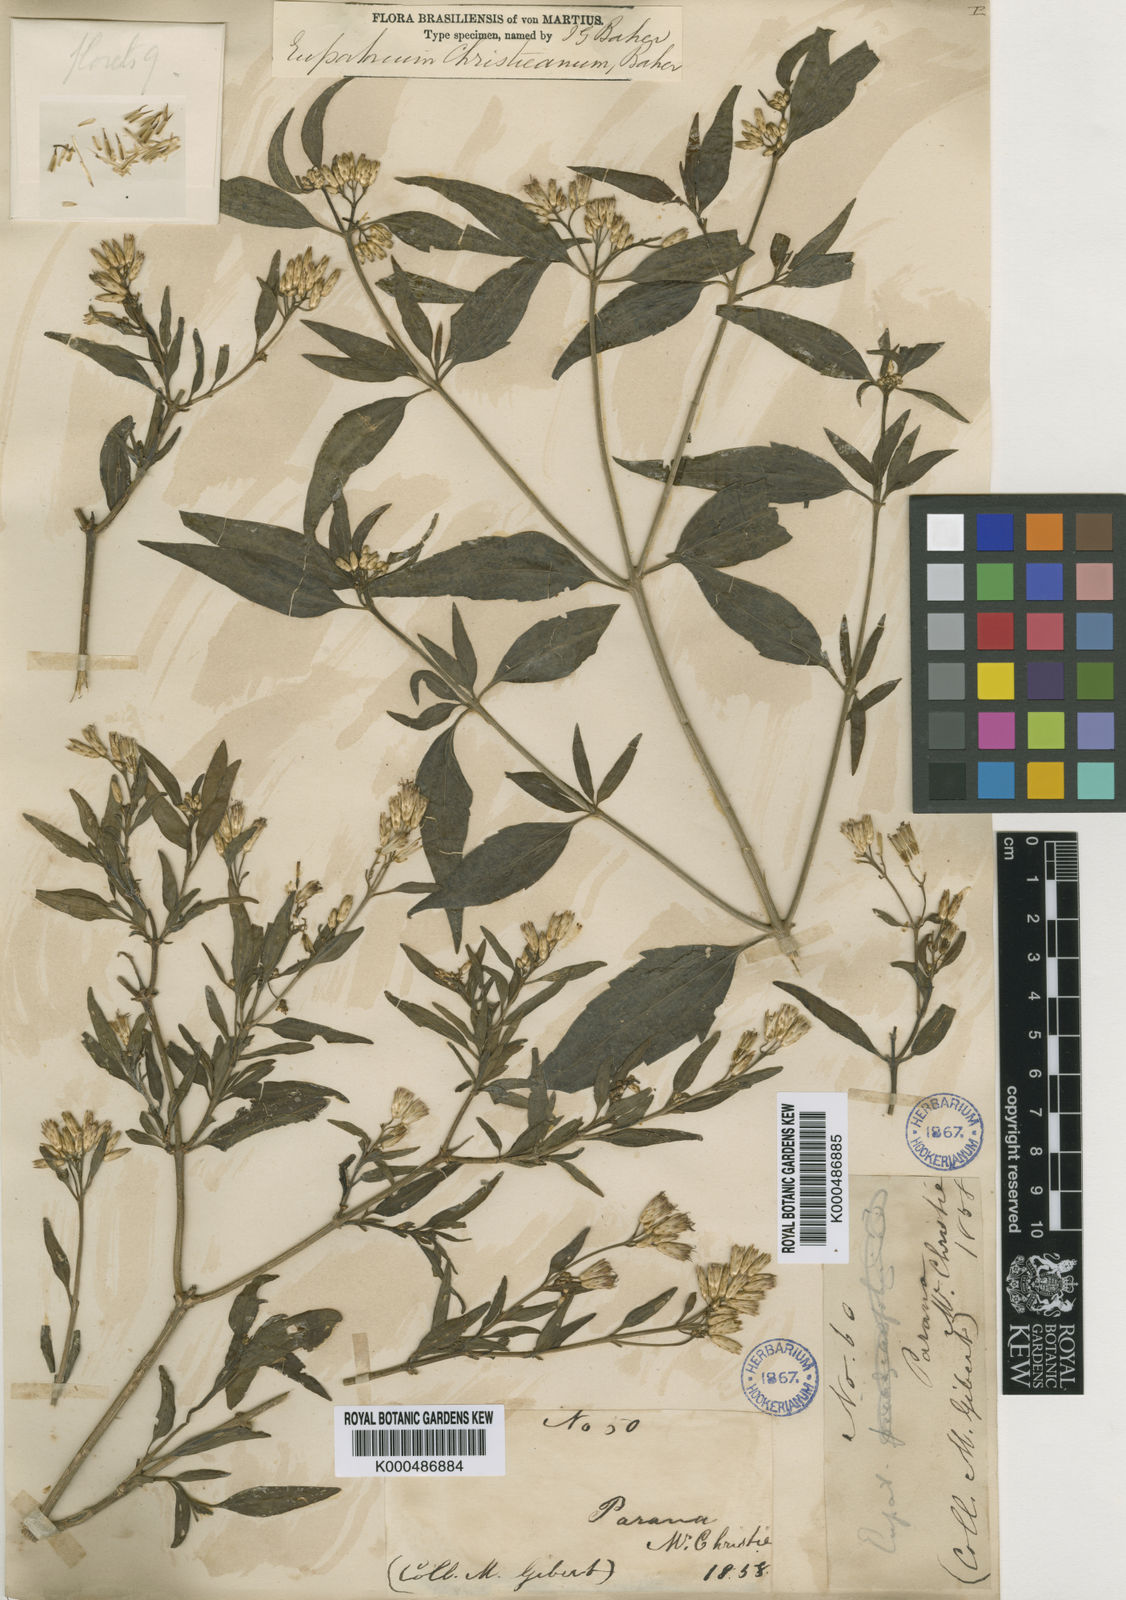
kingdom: Plantae
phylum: Tracheophyta
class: Magnoliopsida
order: Asterales
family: Asteraceae
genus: Chromolaena
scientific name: Chromolaena christieana
